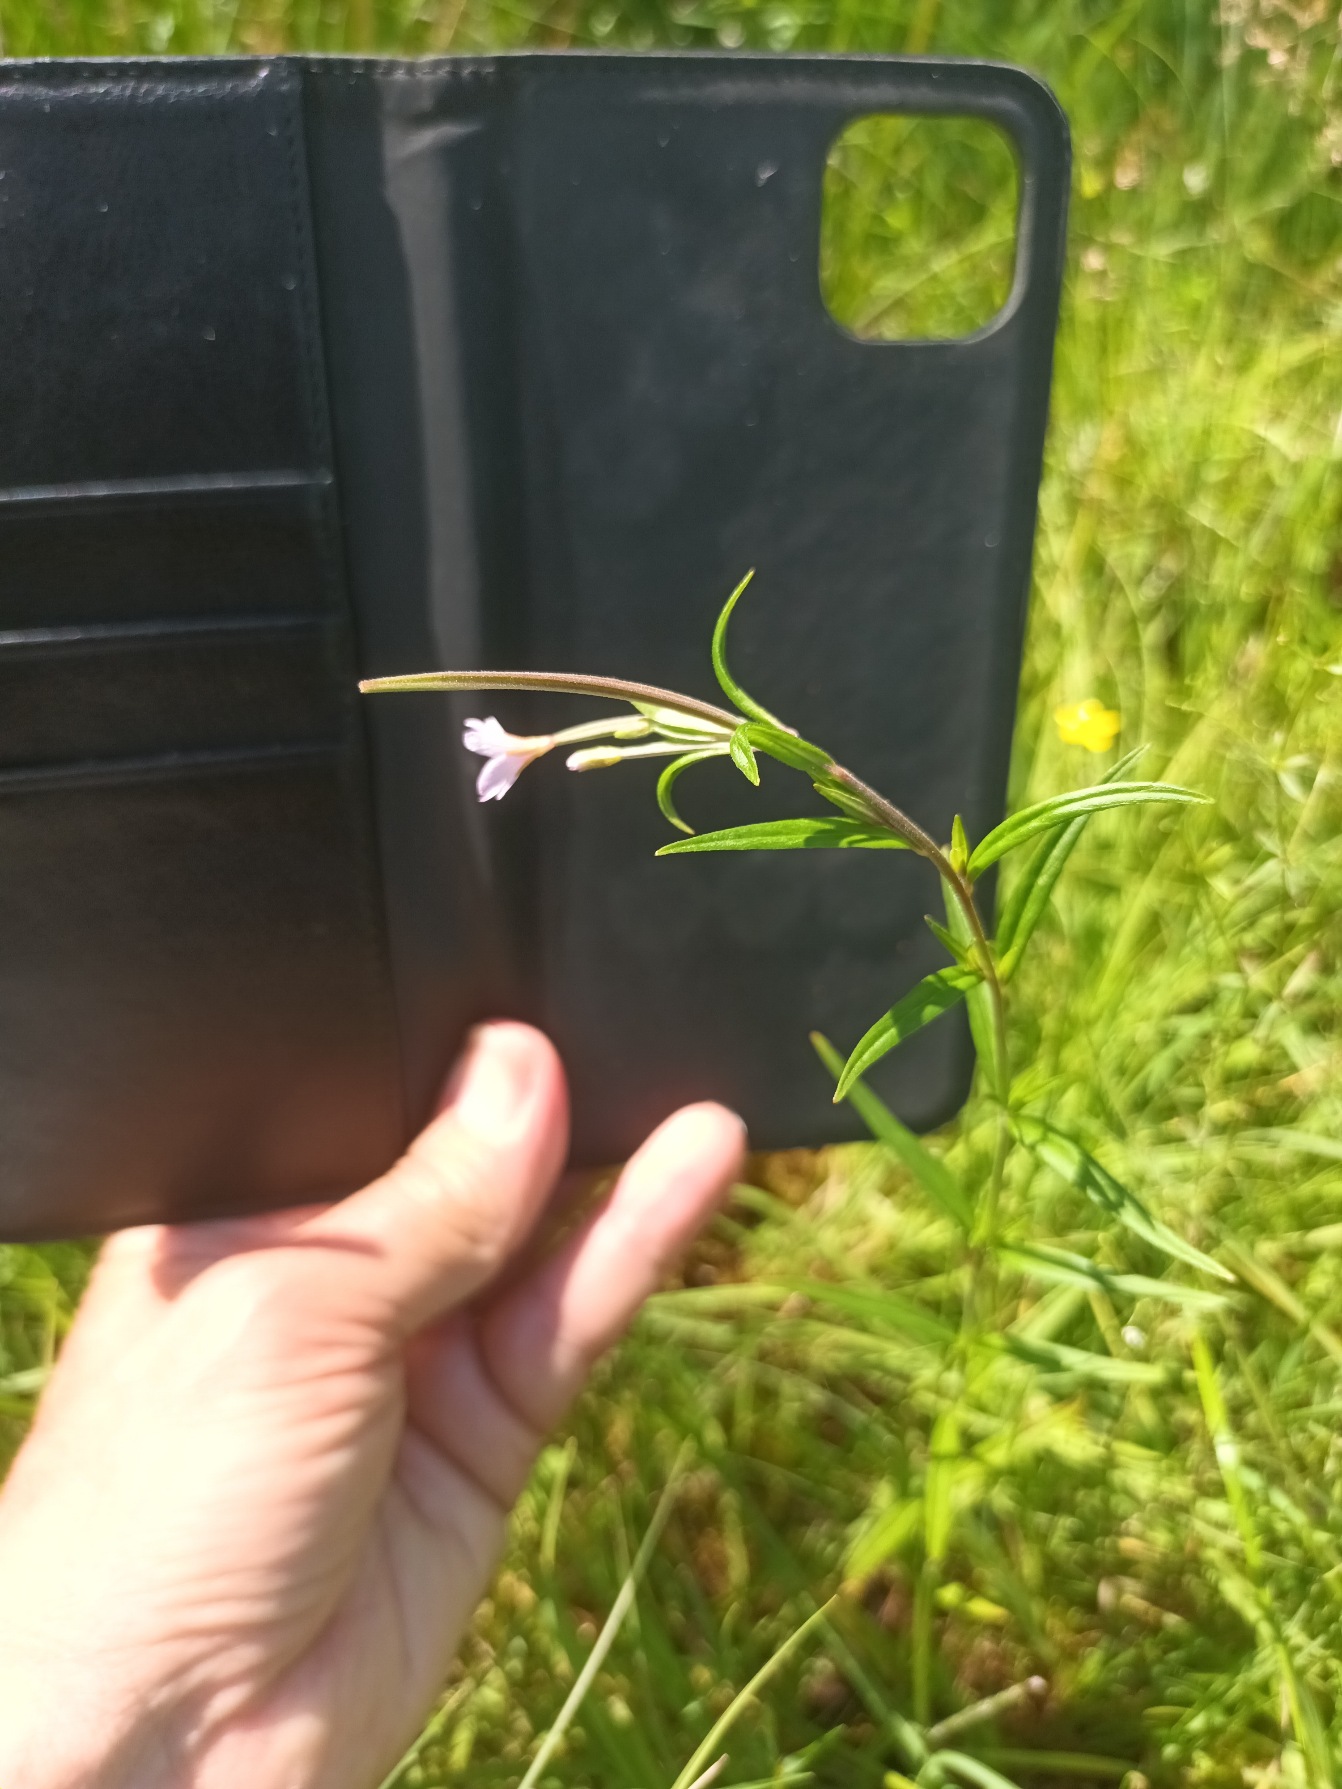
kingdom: Plantae
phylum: Tracheophyta
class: Magnoliopsida
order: Myrtales
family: Onagraceae
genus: Epilobium
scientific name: Epilobium palustre
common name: Kær-dueurt
